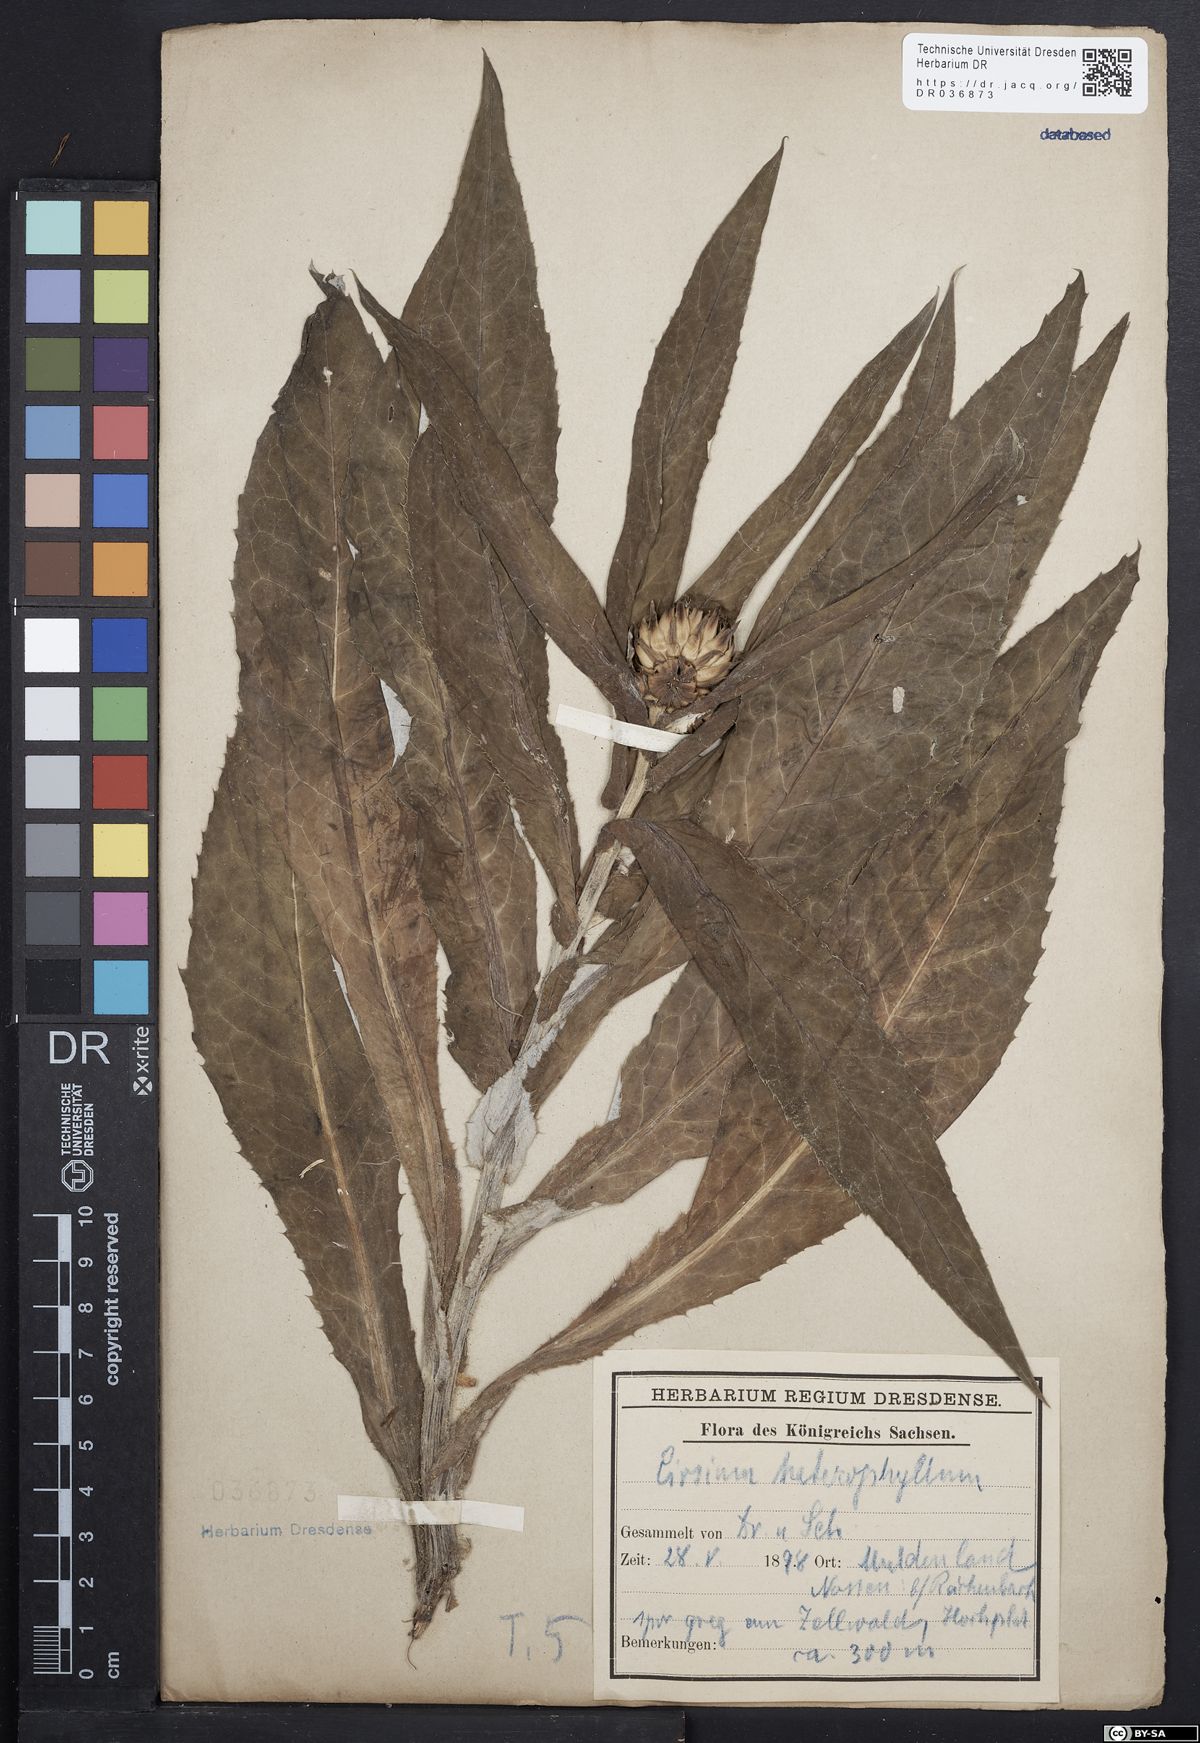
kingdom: Plantae
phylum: Tracheophyta
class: Magnoliopsida
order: Asterales
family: Asteraceae
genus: Cirsium
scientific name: Cirsium helenioides
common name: Melancholy thistle
